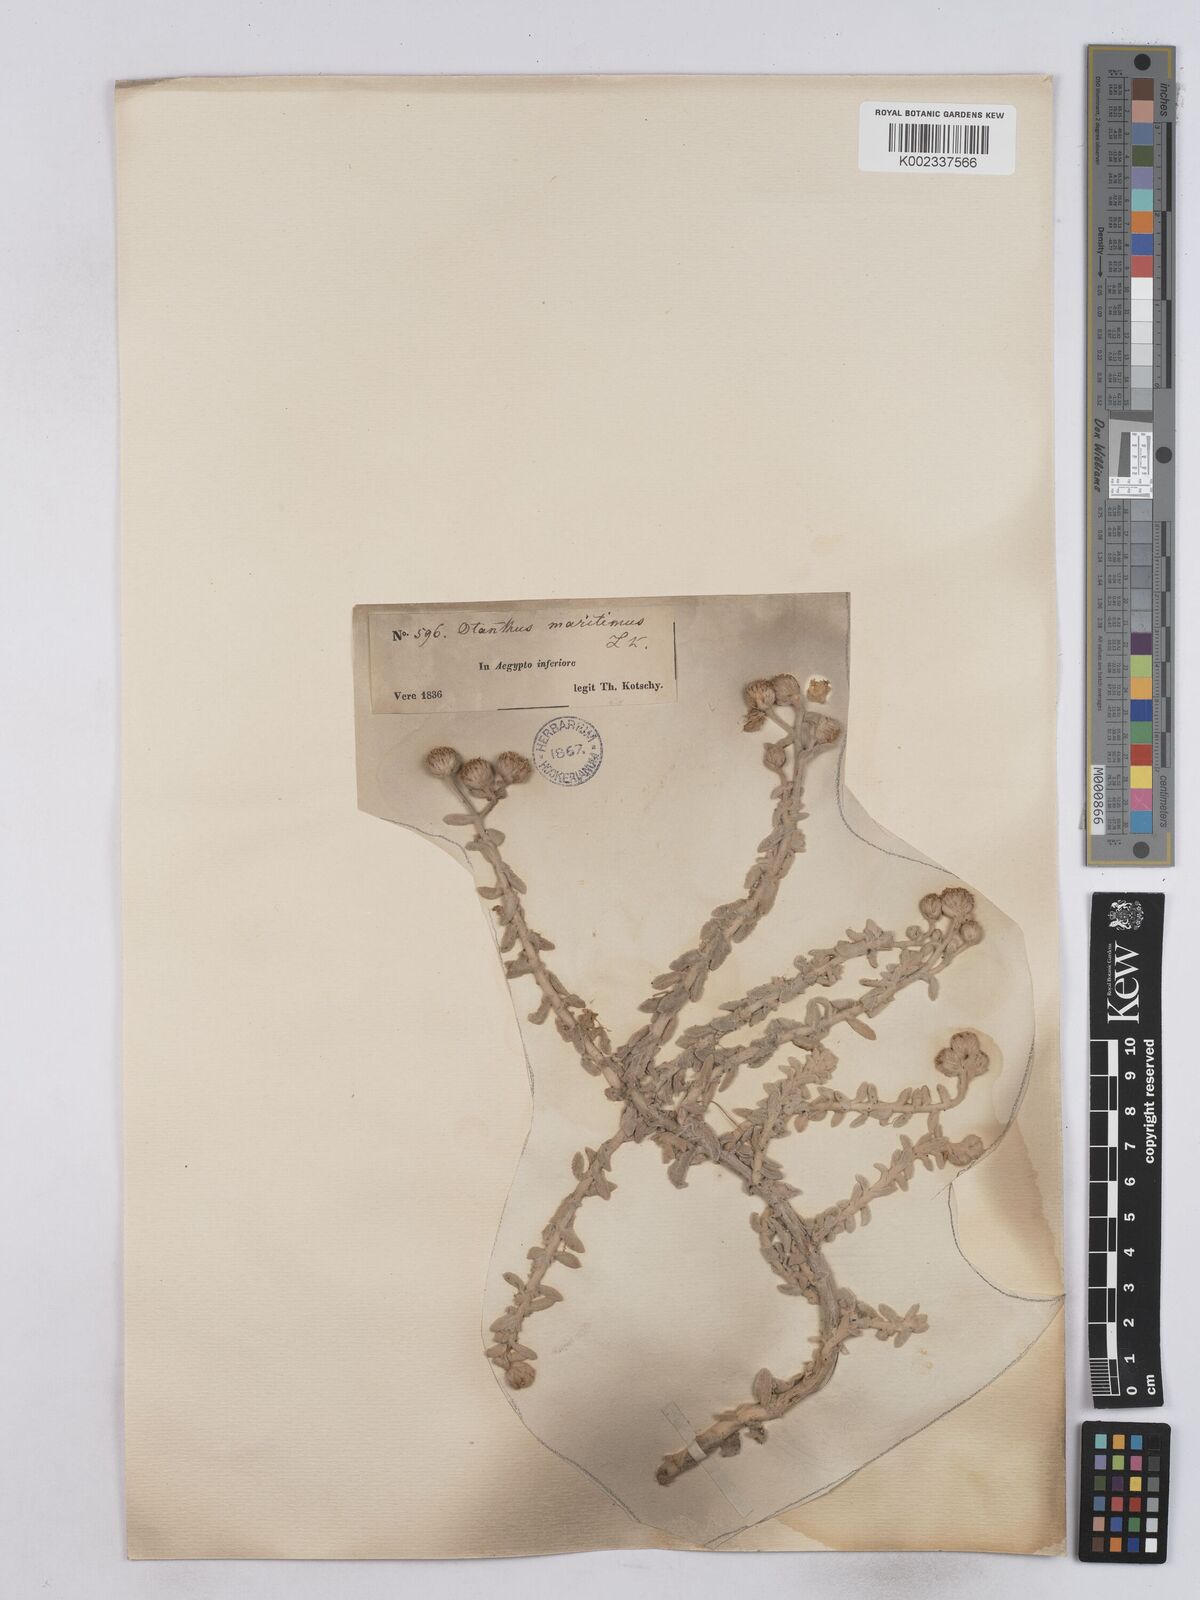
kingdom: Plantae
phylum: Tracheophyta
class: Magnoliopsida
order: Asterales
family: Asteraceae
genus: Achillea
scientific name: Achillea maritima
